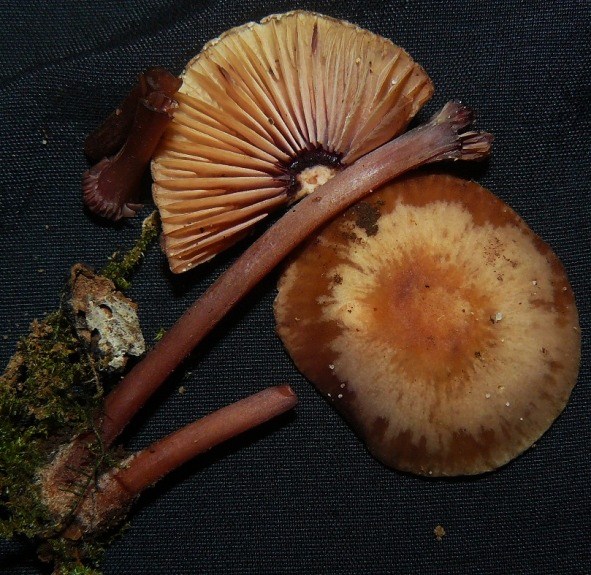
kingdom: Fungi
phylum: Basidiomycota
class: Agaricomycetes
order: Agaricales
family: Mycenaceae
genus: Mycena
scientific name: Mycena haematopus
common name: blødende huesvamp
